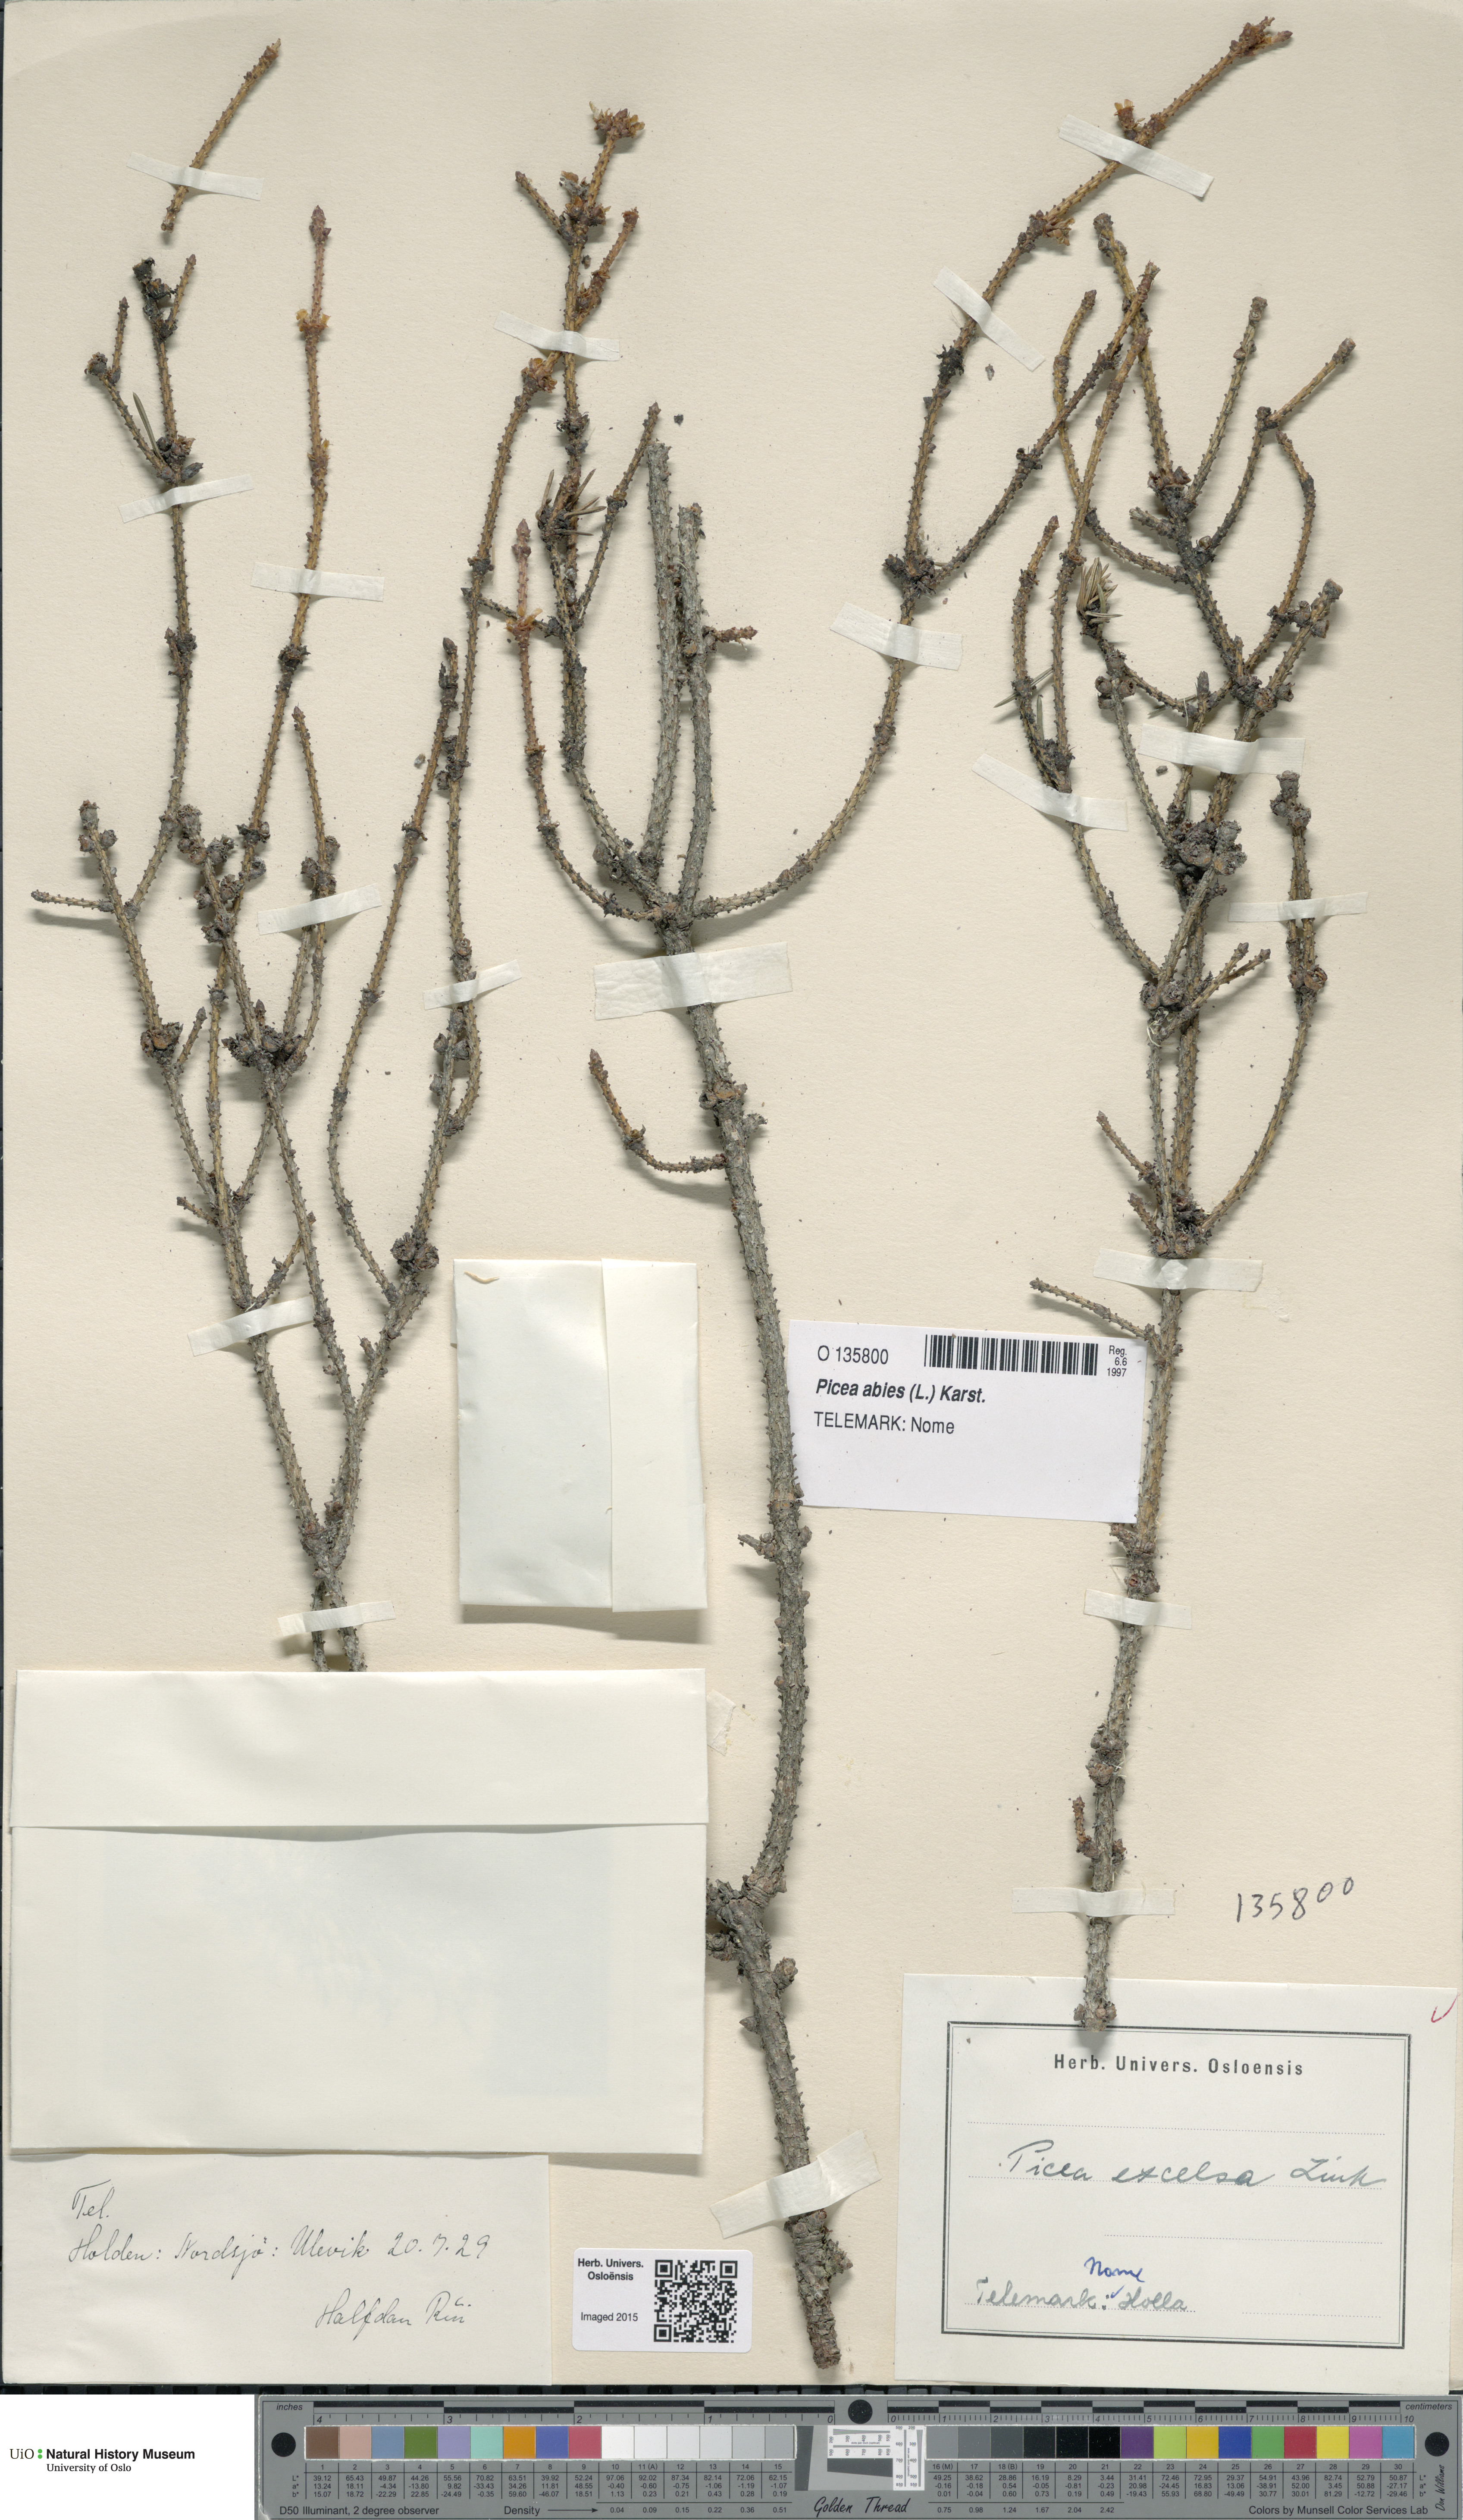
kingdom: Plantae
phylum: Tracheophyta
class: Pinopsida
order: Pinales
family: Pinaceae
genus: Picea
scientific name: Picea abies
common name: Norway spruce
